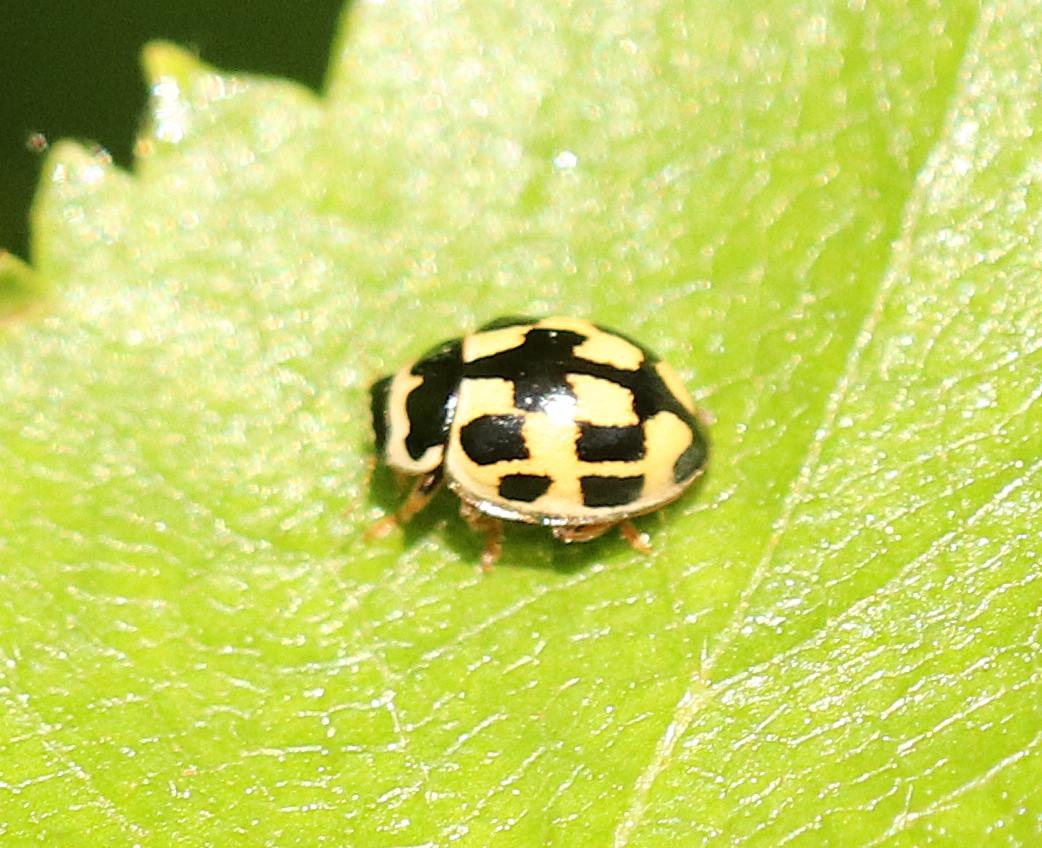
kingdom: Animalia
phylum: Arthropoda
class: Insecta
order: Coleoptera
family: Coccinellidae
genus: Propylaea
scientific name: Propylaea quatuordecimpunctata
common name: Skakbræt
